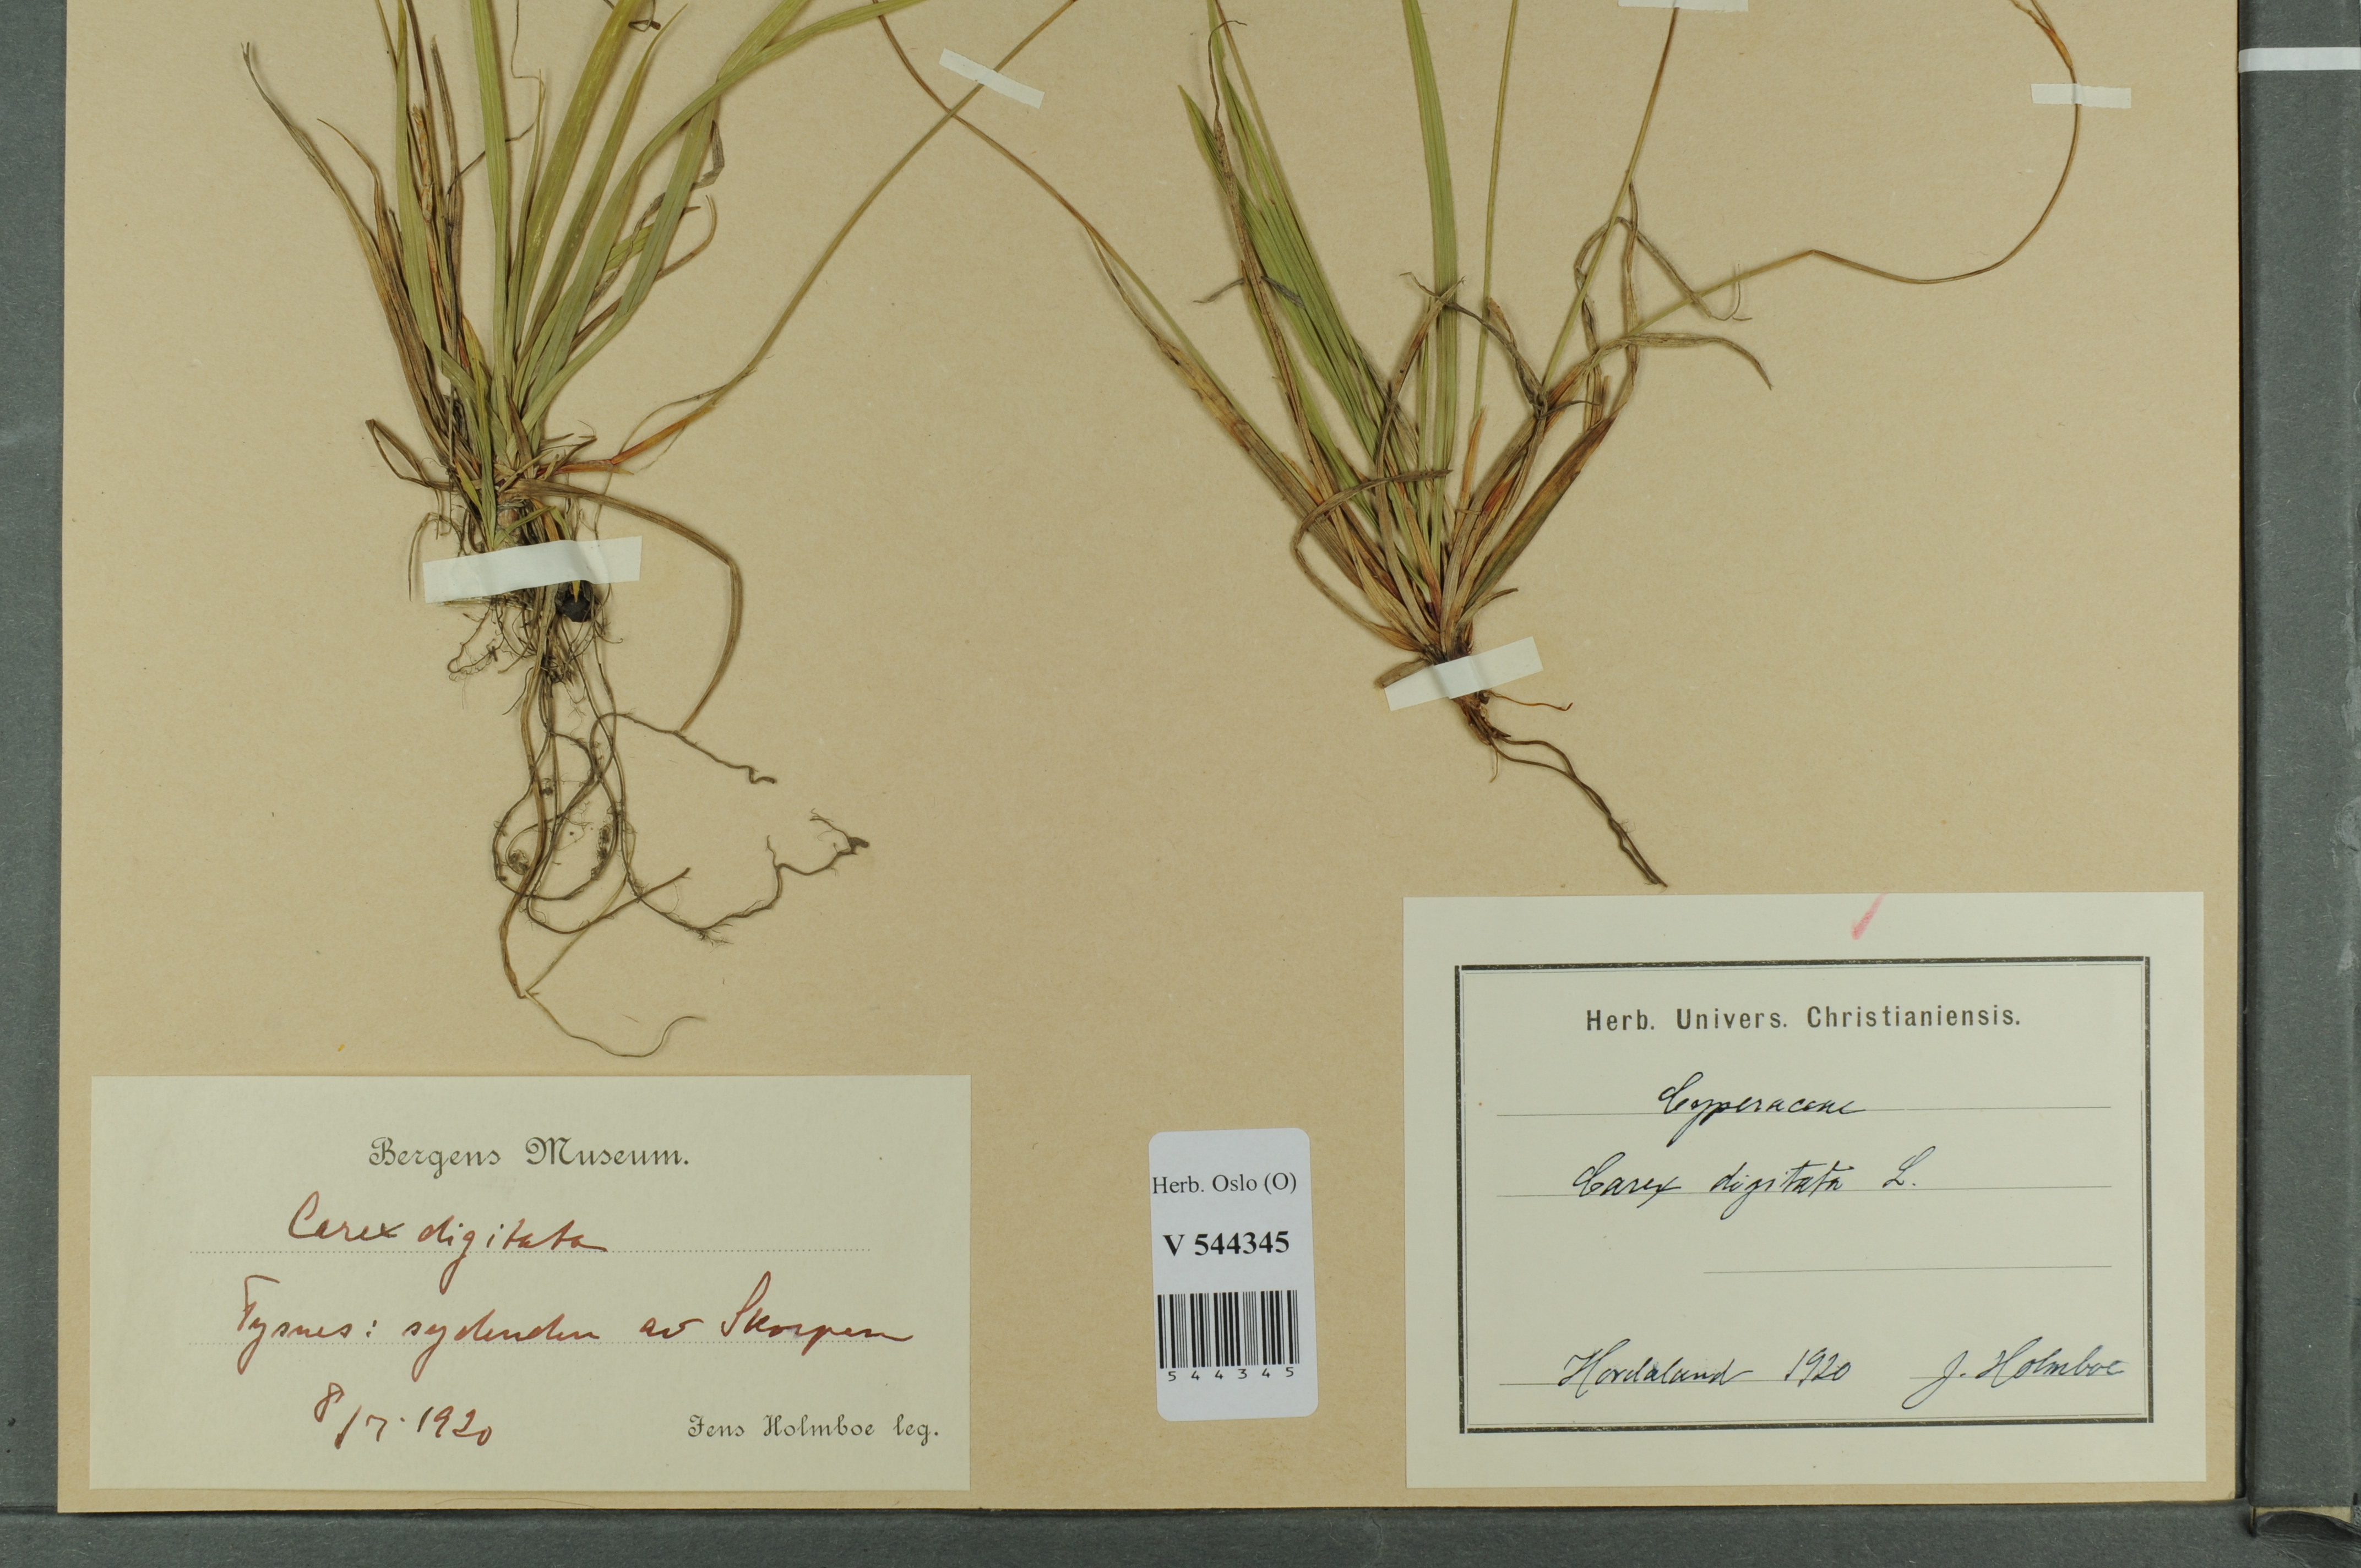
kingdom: Plantae
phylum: Tracheophyta
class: Liliopsida
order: Poales
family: Cyperaceae
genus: Carex
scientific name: Carex digitata
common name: Fingered sedge
